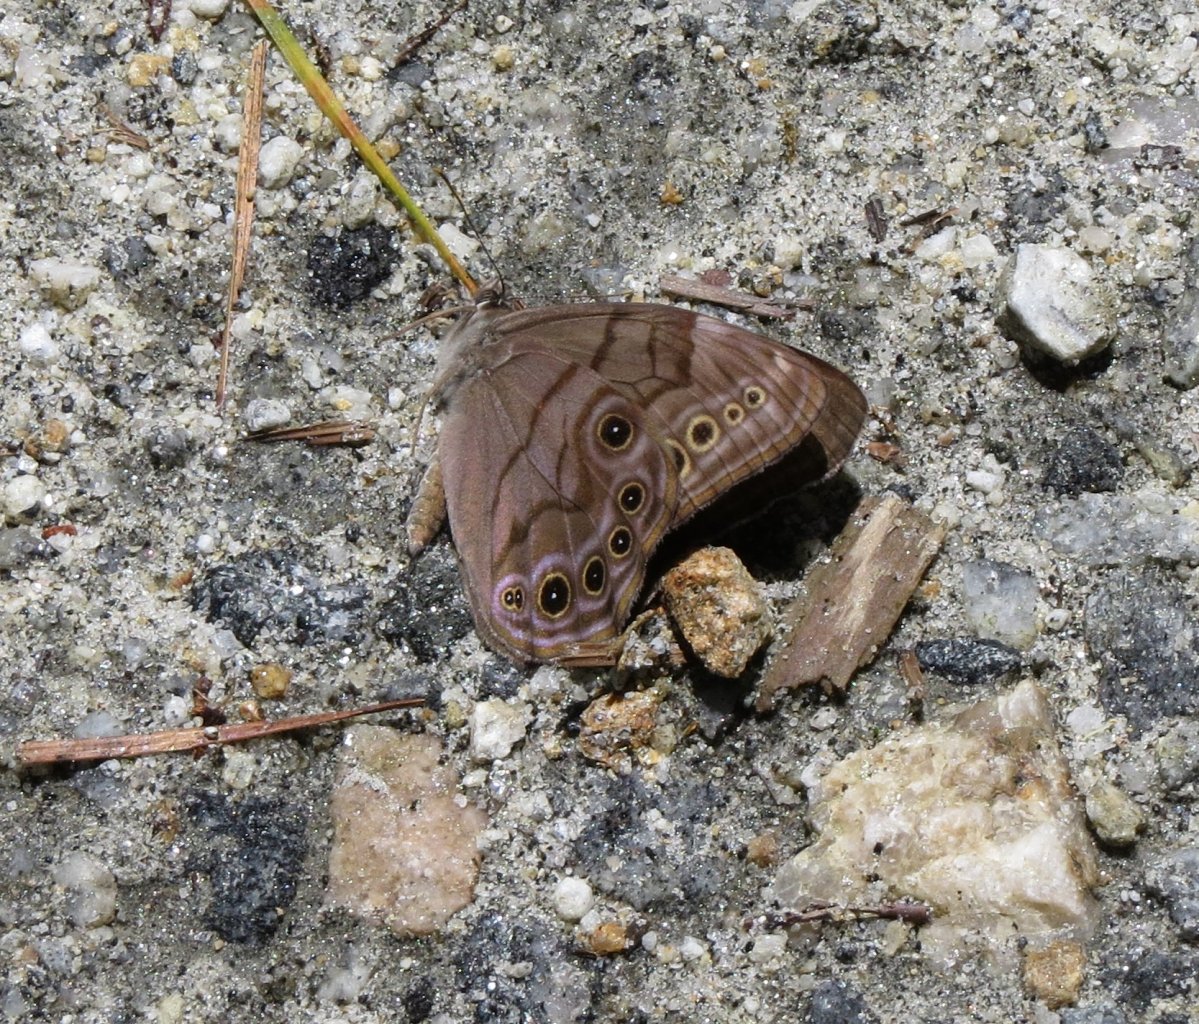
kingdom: Animalia
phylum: Arthropoda
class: Insecta
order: Lepidoptera
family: Nymphalidae
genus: Lethe
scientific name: Lethe anthedon
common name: Northern Pearly-Eye
